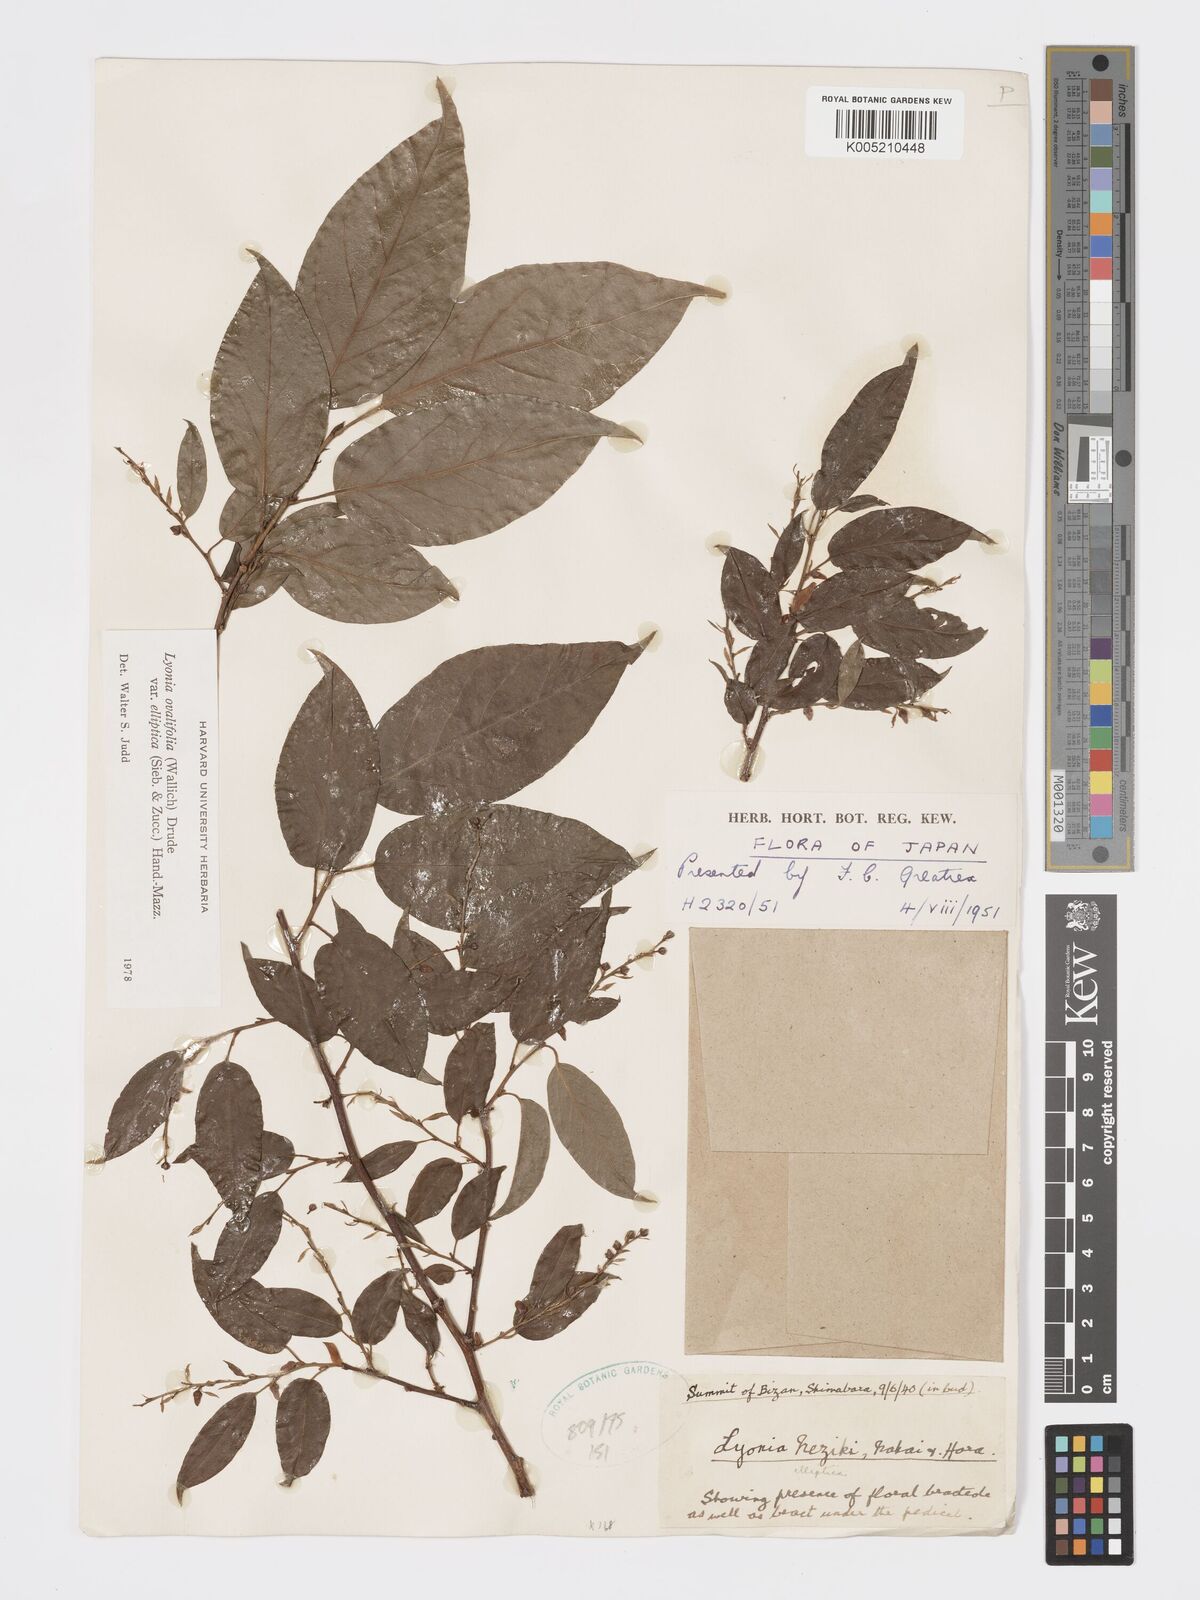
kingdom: Plantae
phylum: Tracheophyta
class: Magnoliopsida
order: Ericales
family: Ericaceae
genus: Lyonia
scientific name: Lyonia ovalifolia
